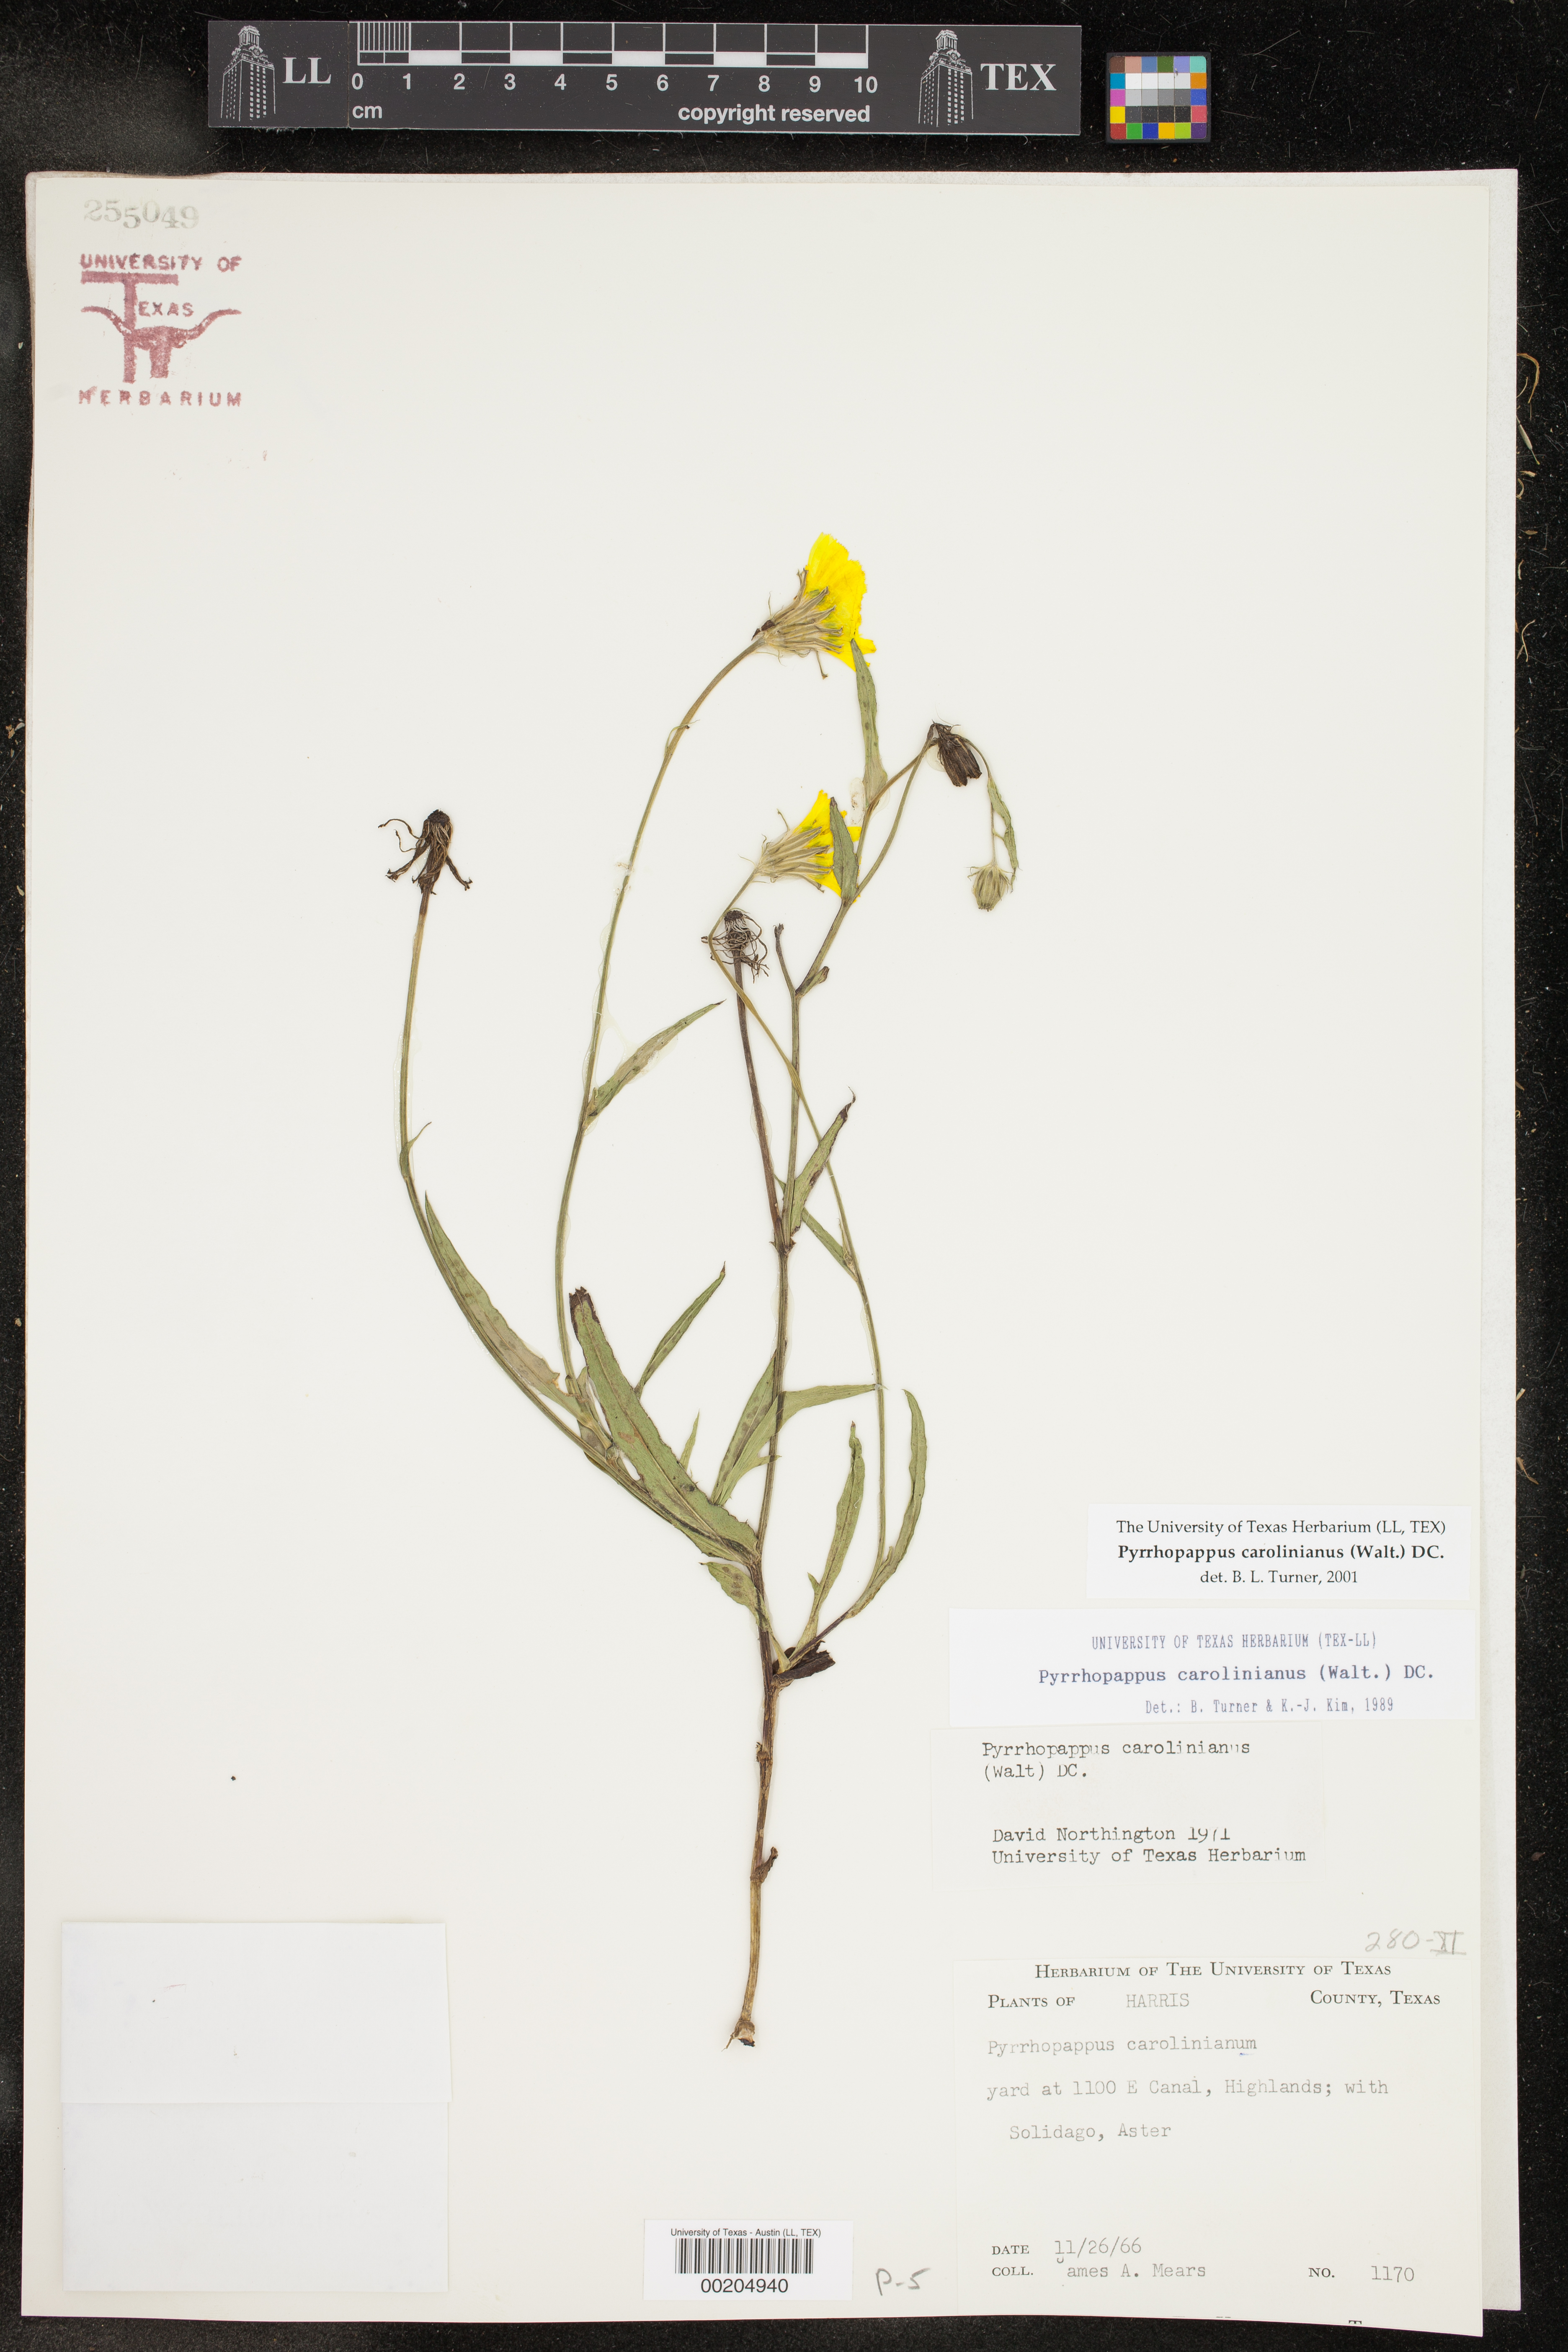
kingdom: Plantae
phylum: Tracheophyta
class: Magnoliopsida
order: Asterales
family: Asteraceae
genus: Pyrrhopappus
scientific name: Pyrrhopappus carolinianus
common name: Carolina desert-chicory
